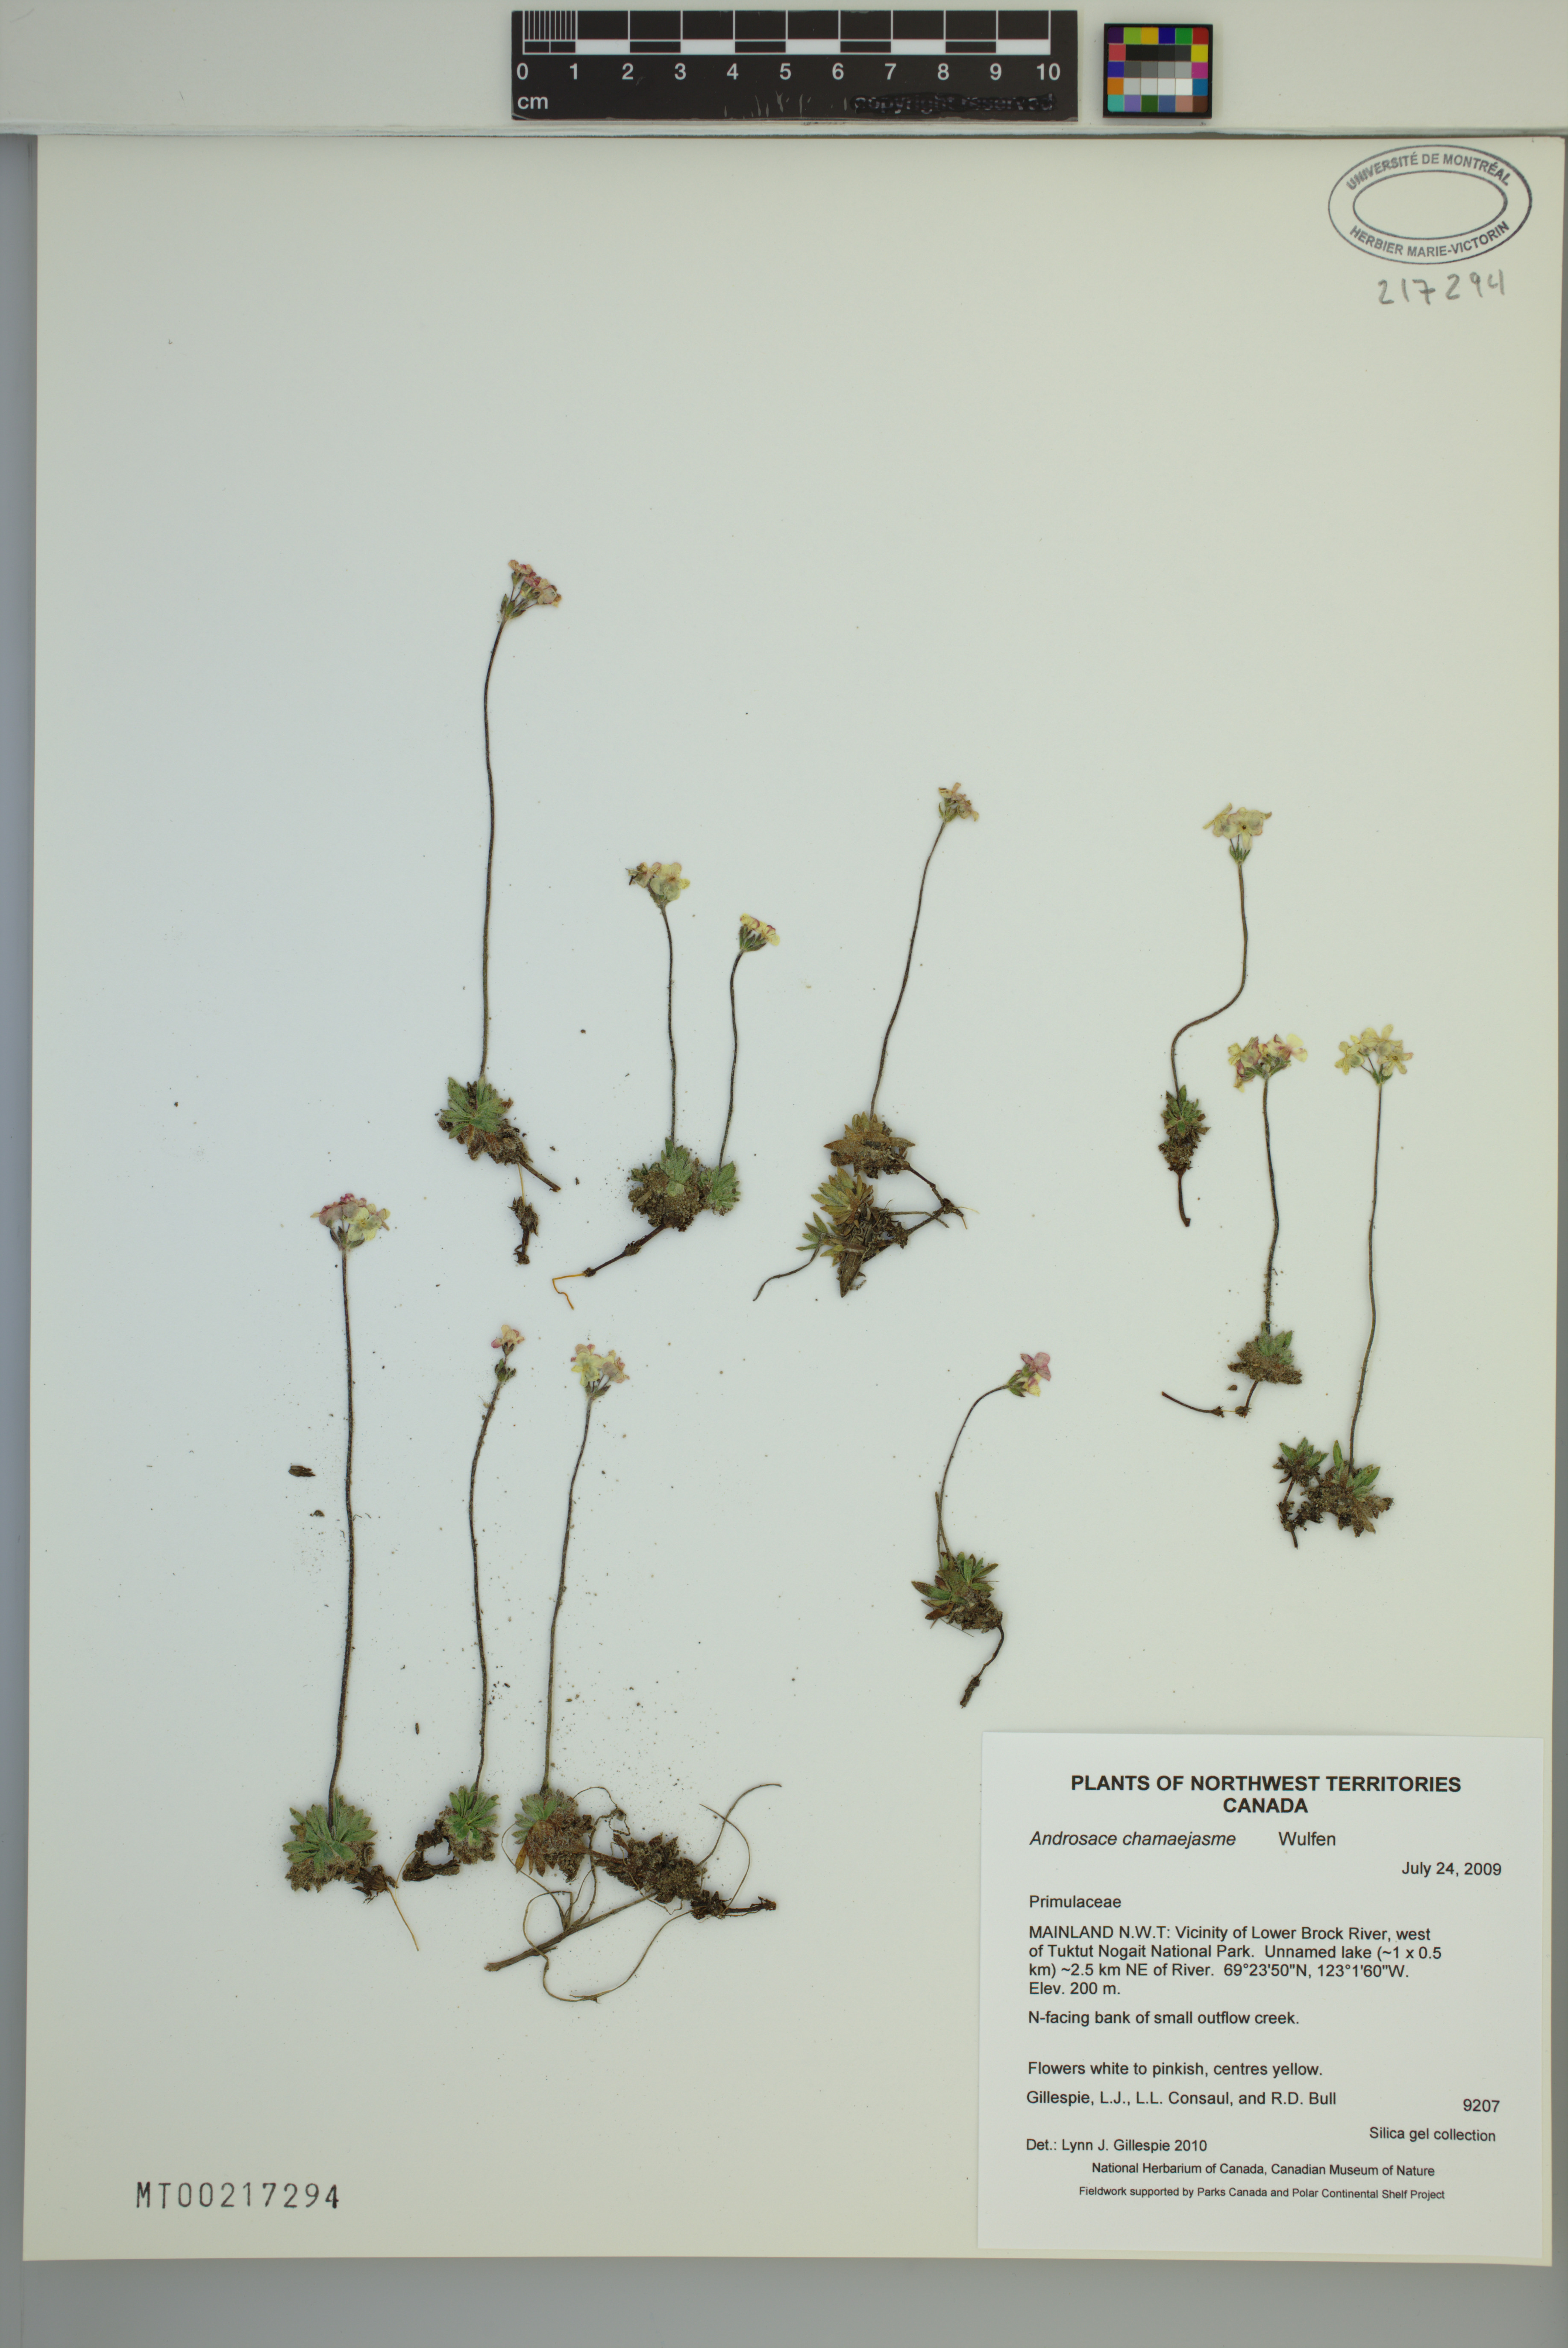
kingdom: Plantae
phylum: Tracheophyta
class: Magnoliopsida
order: Ericales
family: Primulaceae
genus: Androsace
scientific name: Androsace obtusifolia
